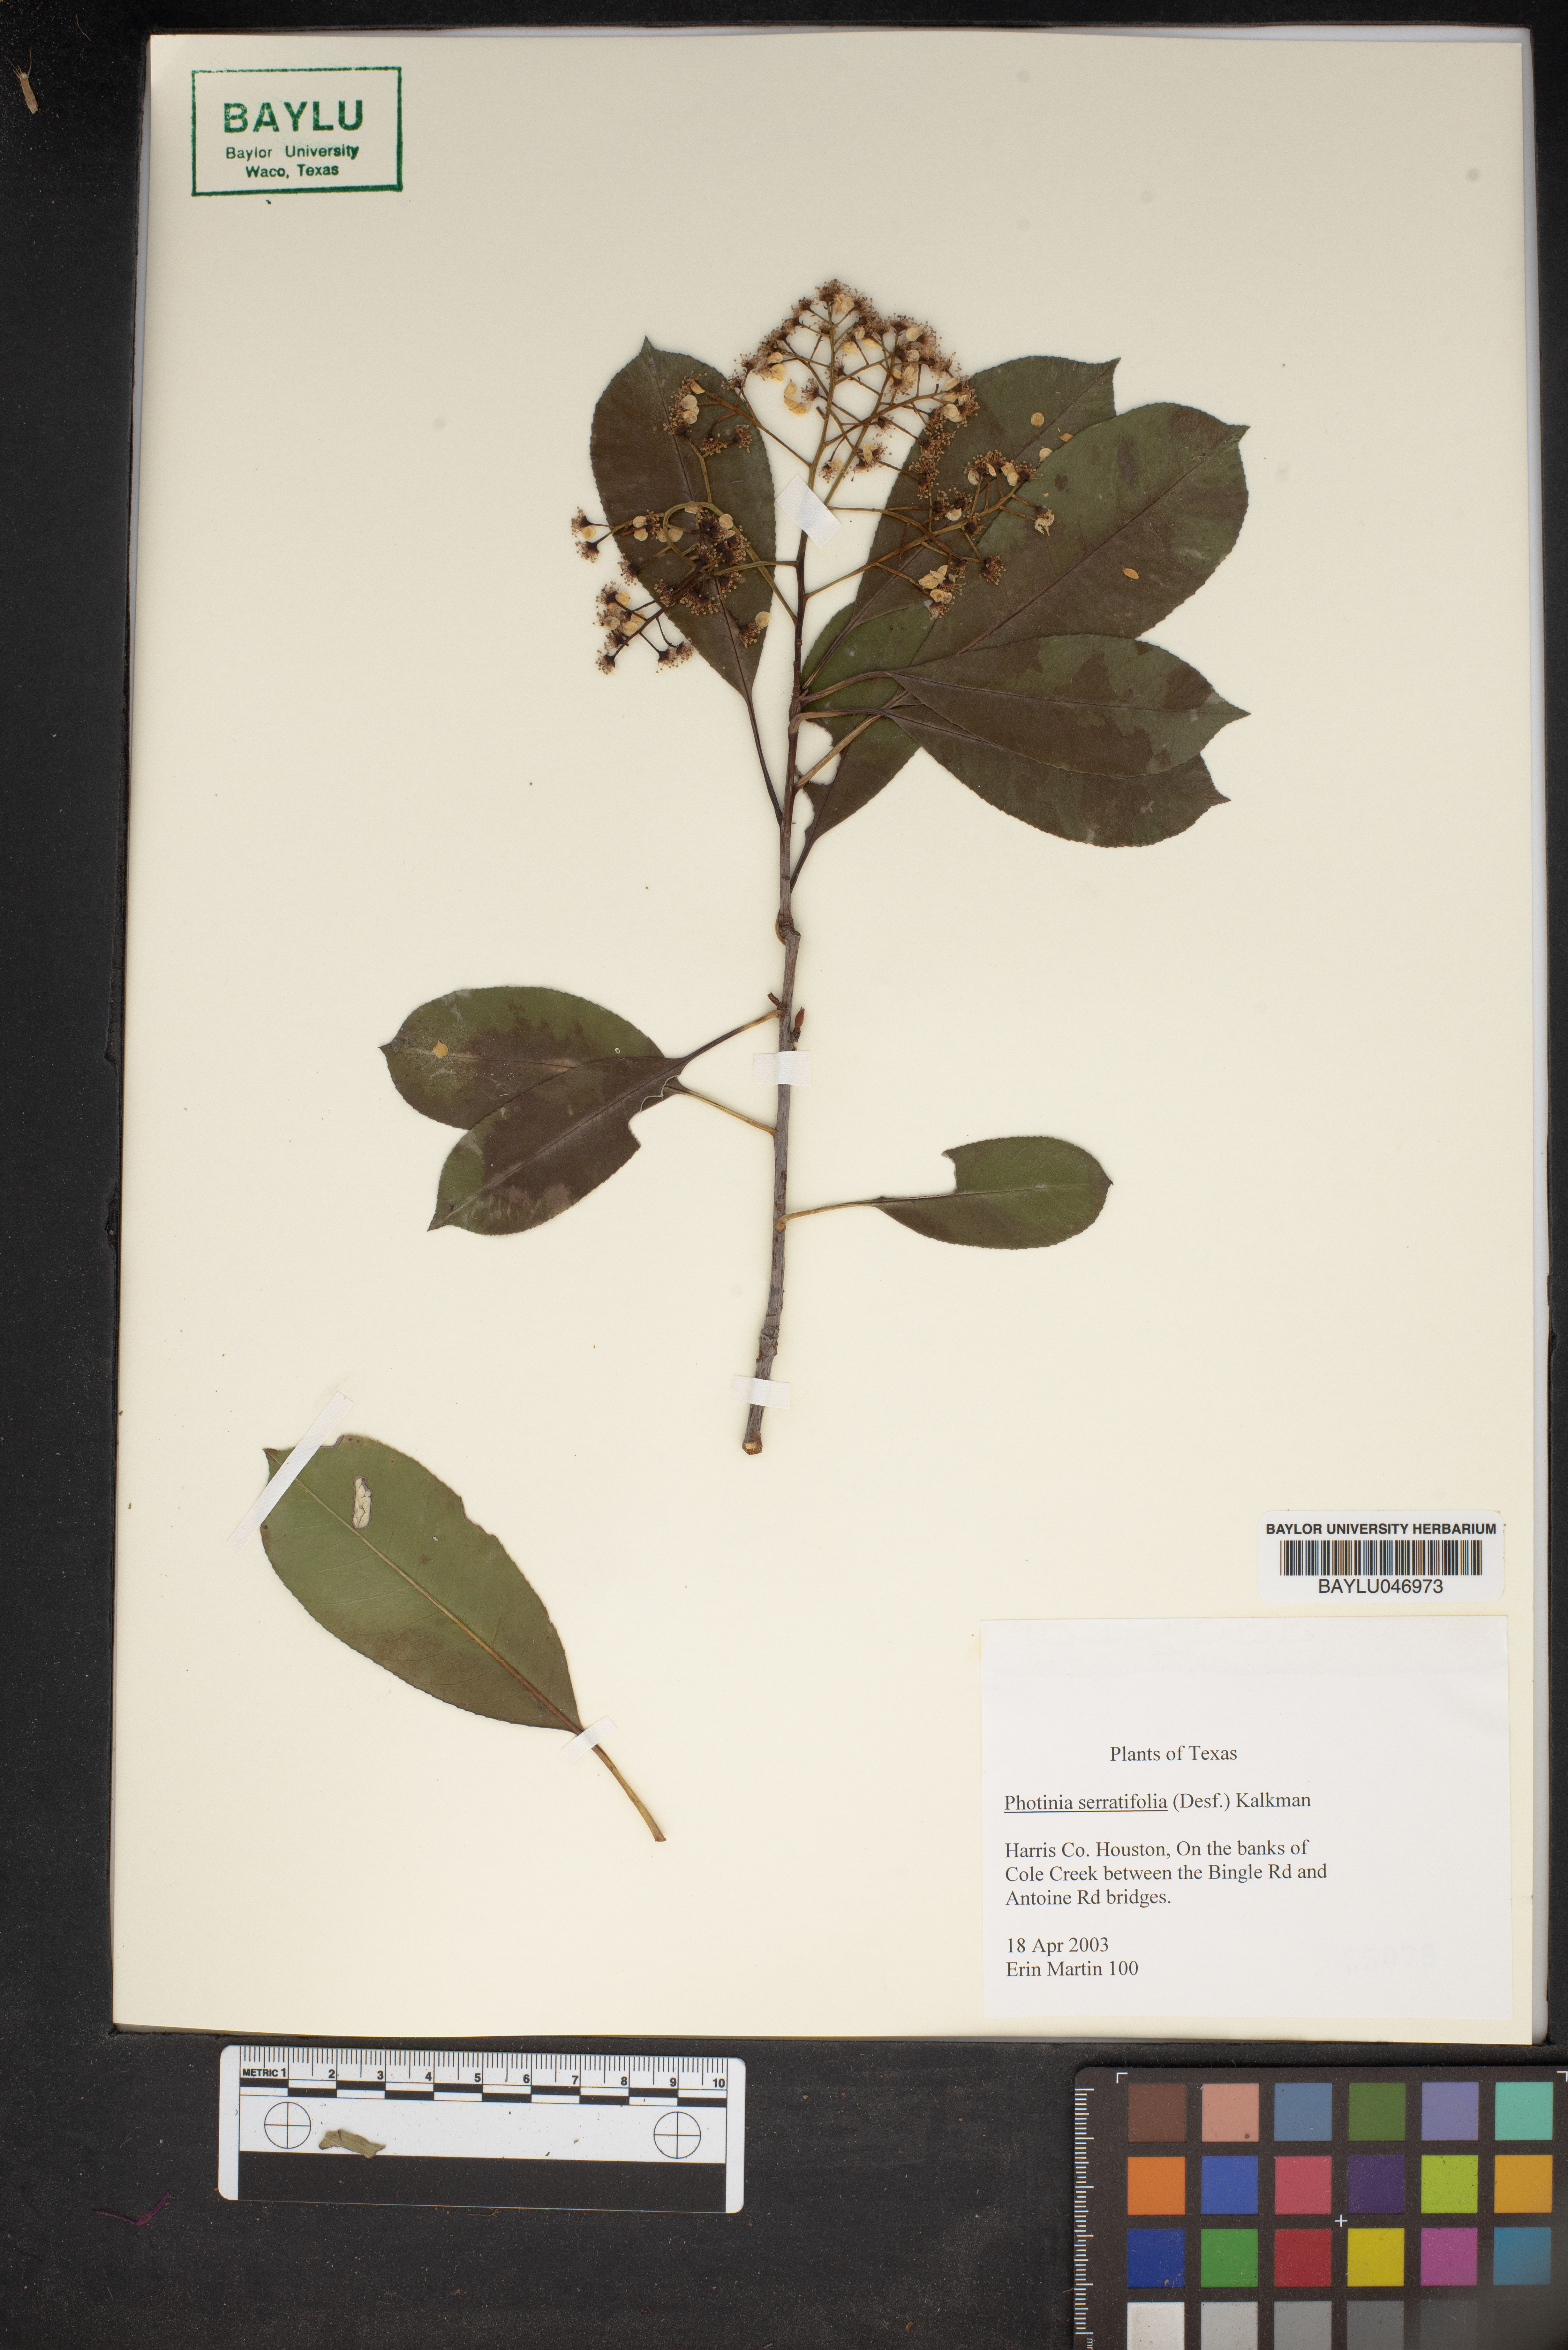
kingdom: Plantae
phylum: Tracheophyta
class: Magnoliopsida
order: Rosales
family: Rosaceae
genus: Photinia
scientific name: Photinia serratifolia
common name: Taiwanese photinia
